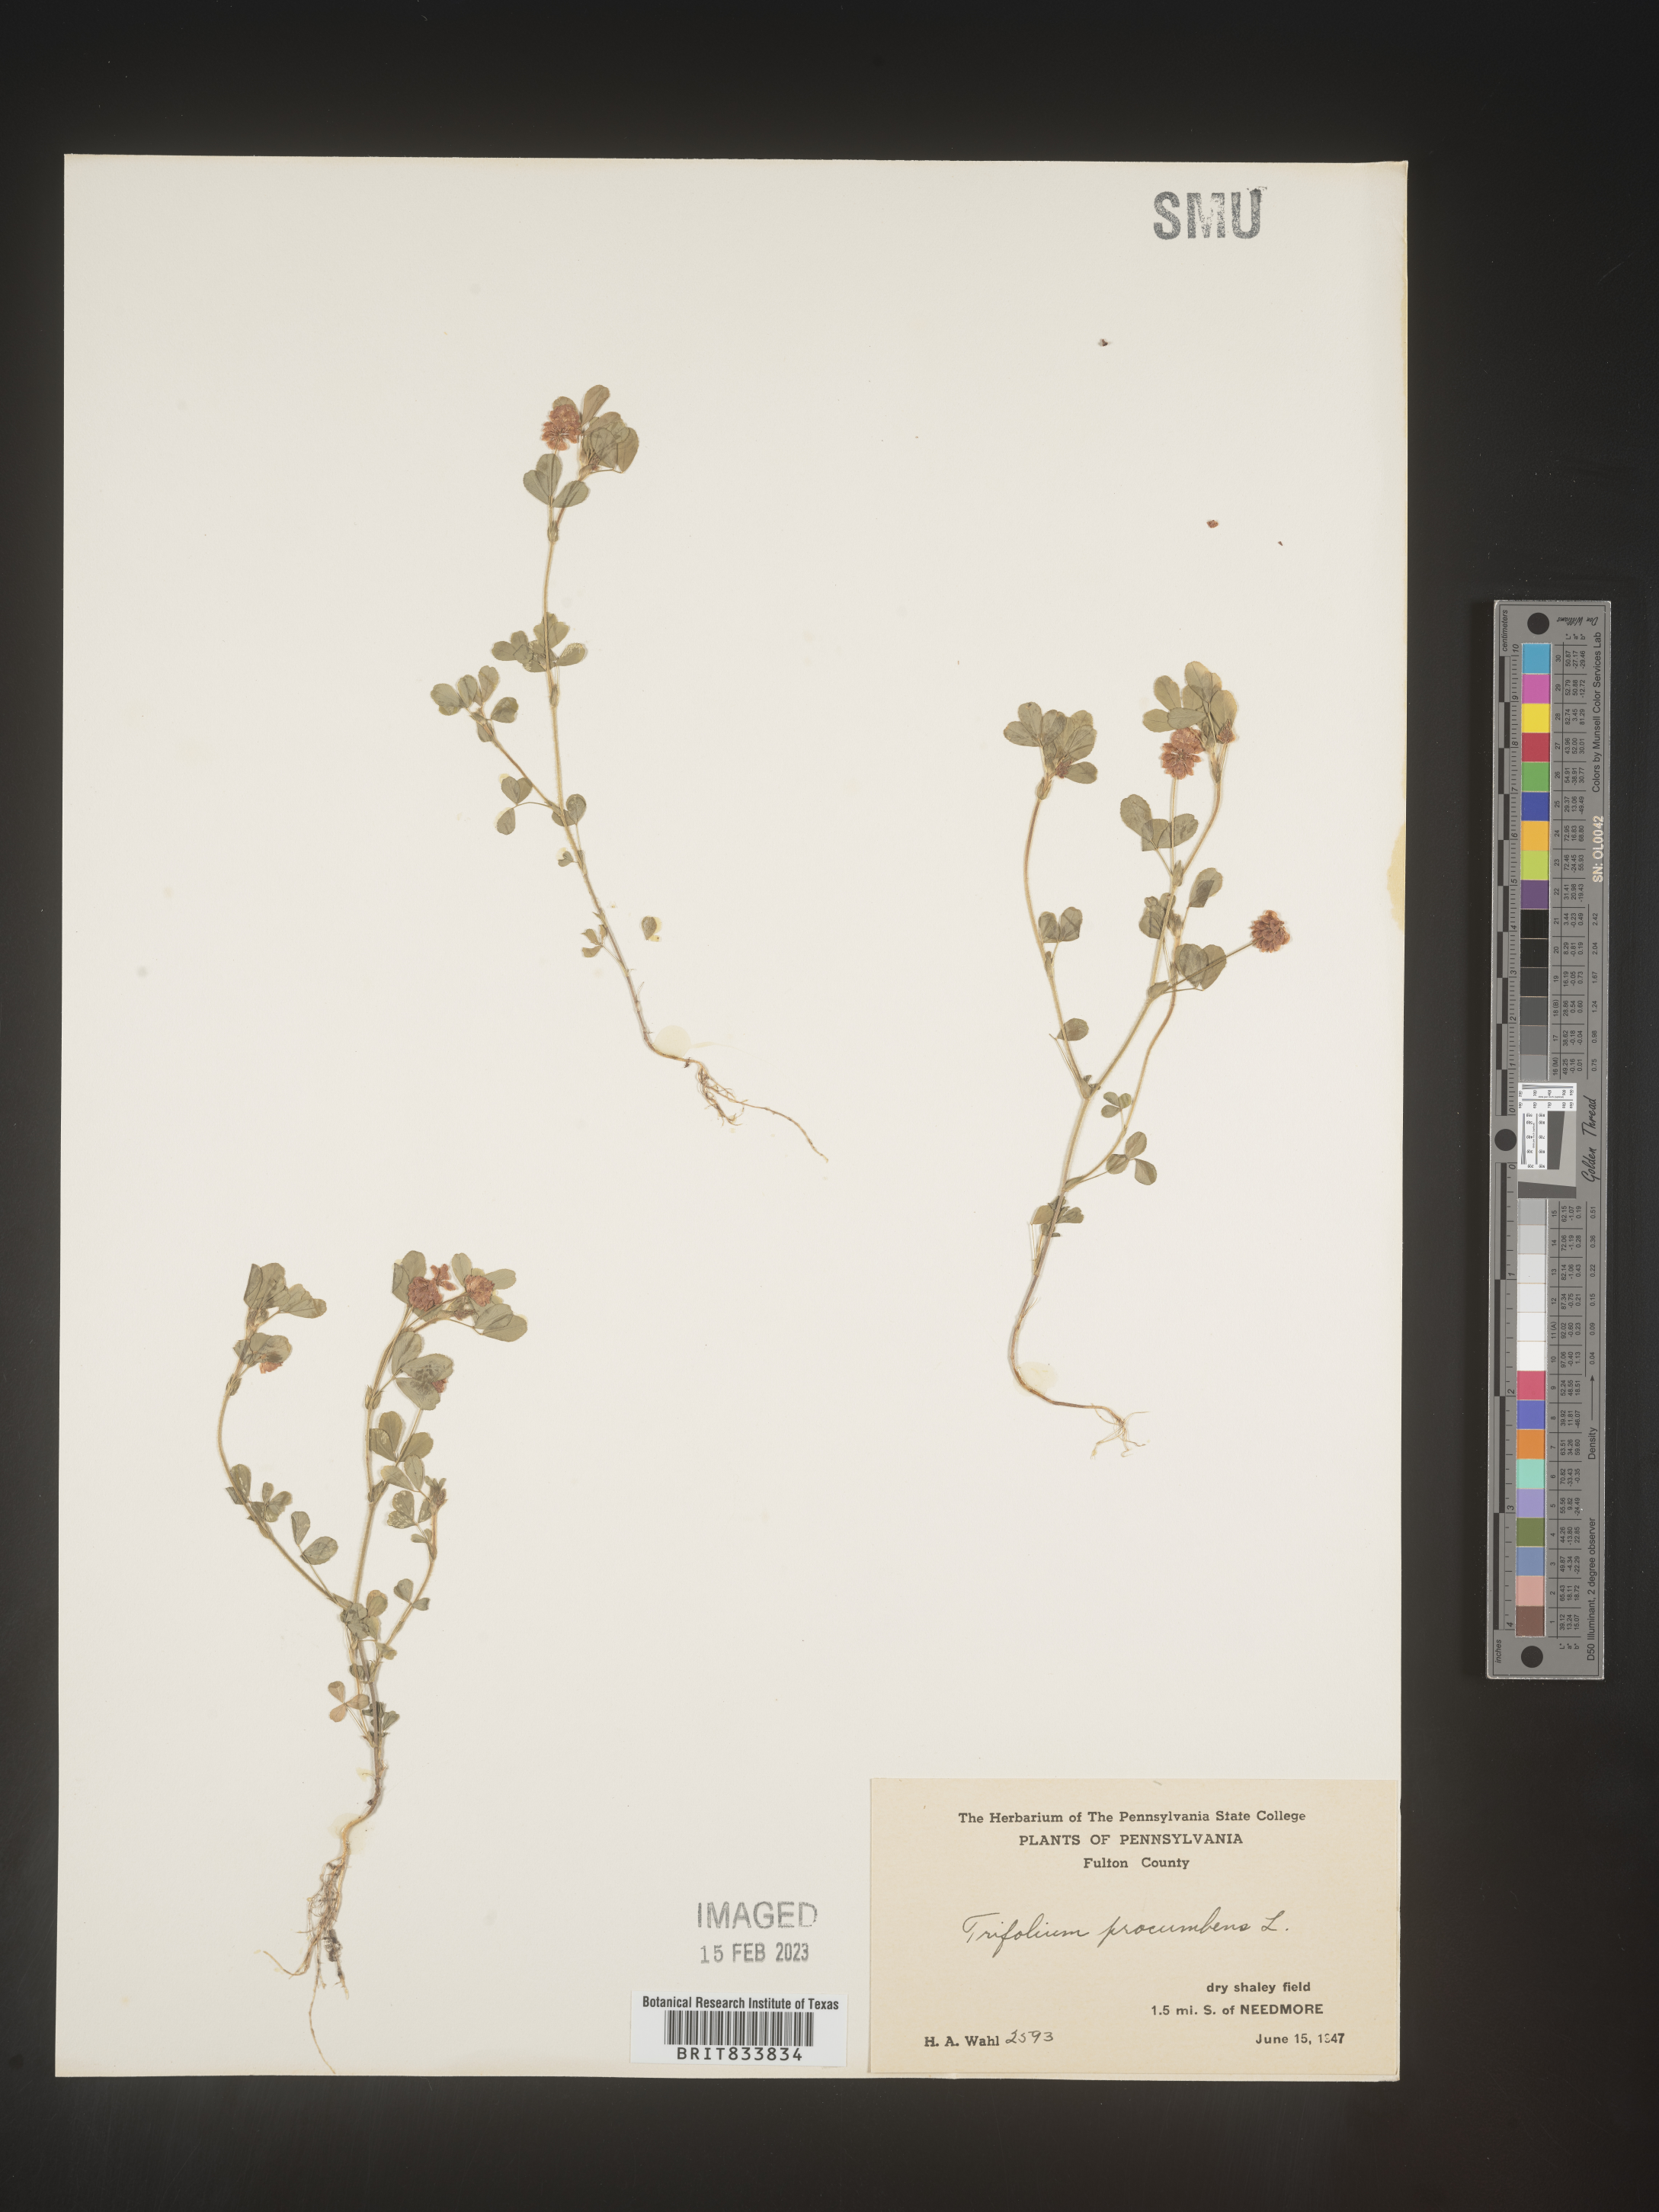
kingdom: Plantae
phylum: Tracheophyta
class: Magnoliopsida
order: Fabales
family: Fabaceae
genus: Trifolium
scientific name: Trifolium campestre
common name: Field clover
